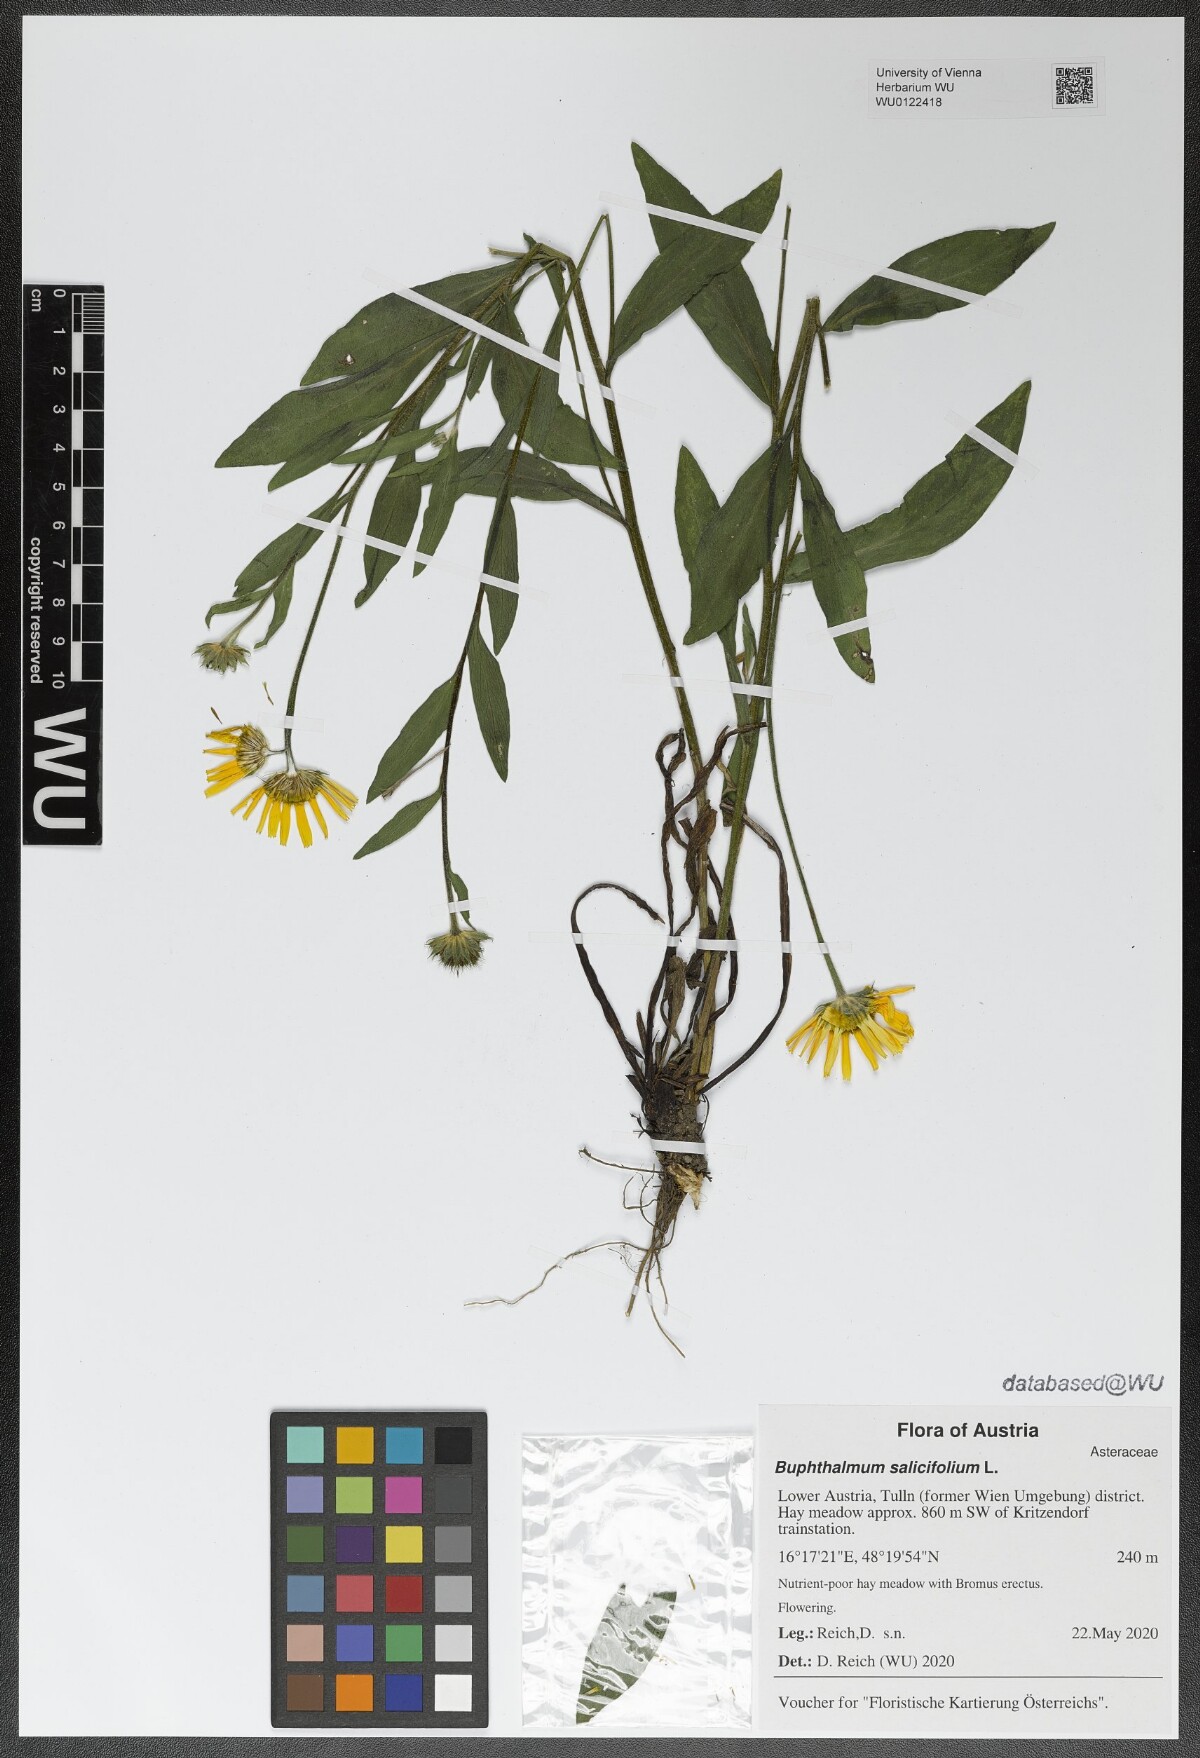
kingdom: Plantae
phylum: Tracheophyta
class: Magnoliopsida
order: Asterales
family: Asteraceae
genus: Buphthalmum
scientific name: Buphthalmum salicifolium
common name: Willow-leaved yellow-oxeye
